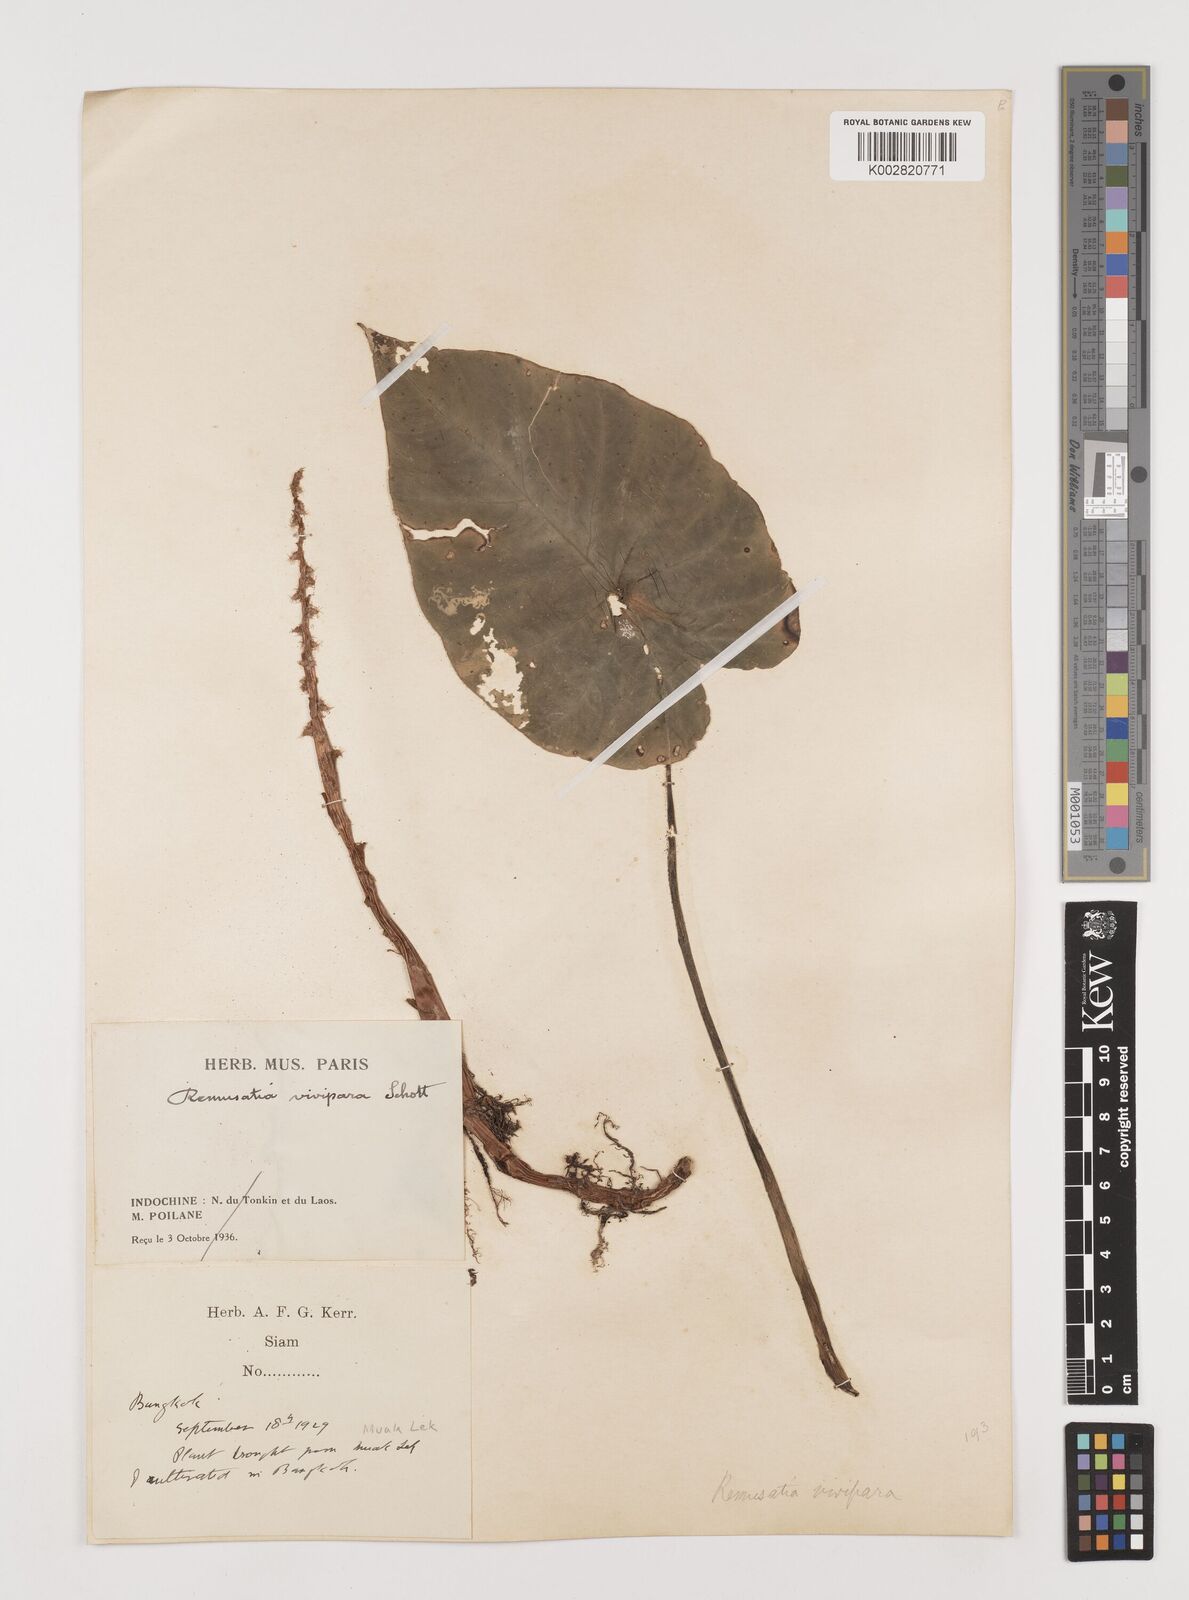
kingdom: Plantae
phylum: Tracheophyta
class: Liliopsida
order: Alismatales
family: Araceae
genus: Remusatia
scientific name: Remusatia vivipara
